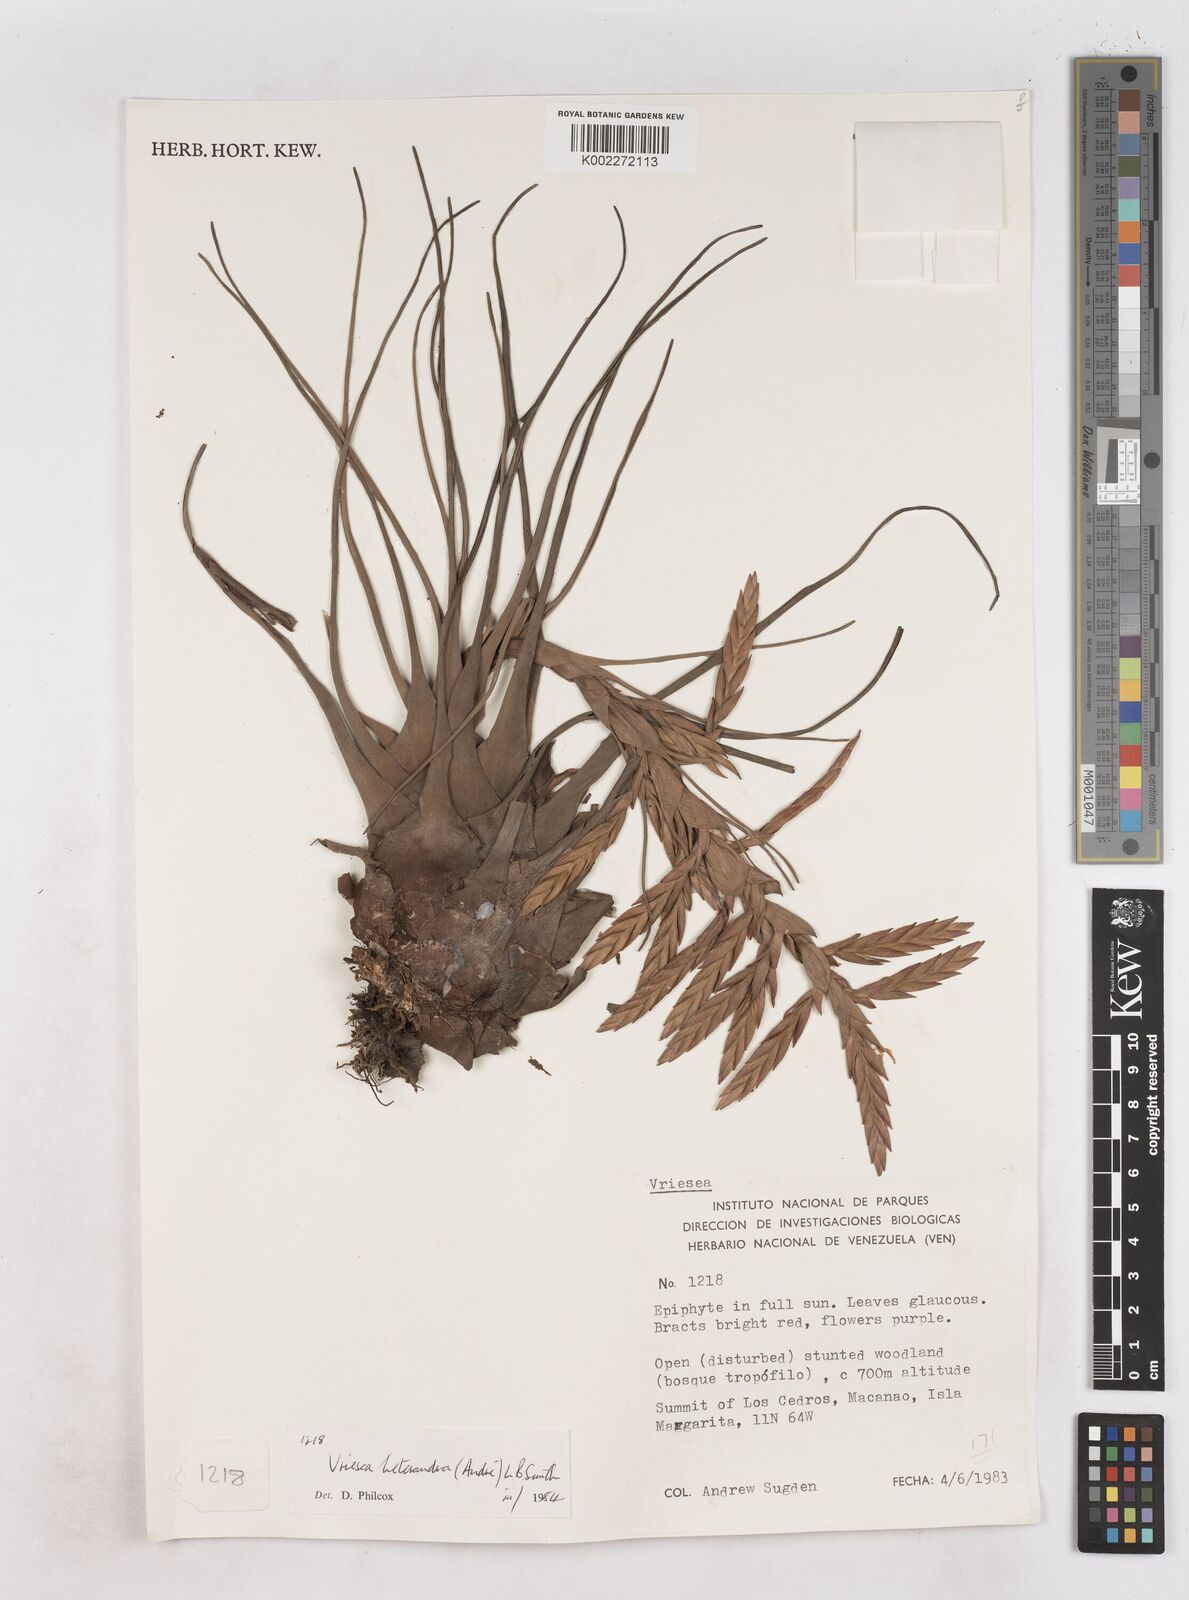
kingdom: Plantae
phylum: Tracheophyta
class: Liliopsida
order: Poales
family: Bromeliaceae
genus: Tillandsia
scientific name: Tillandsia heterandra
